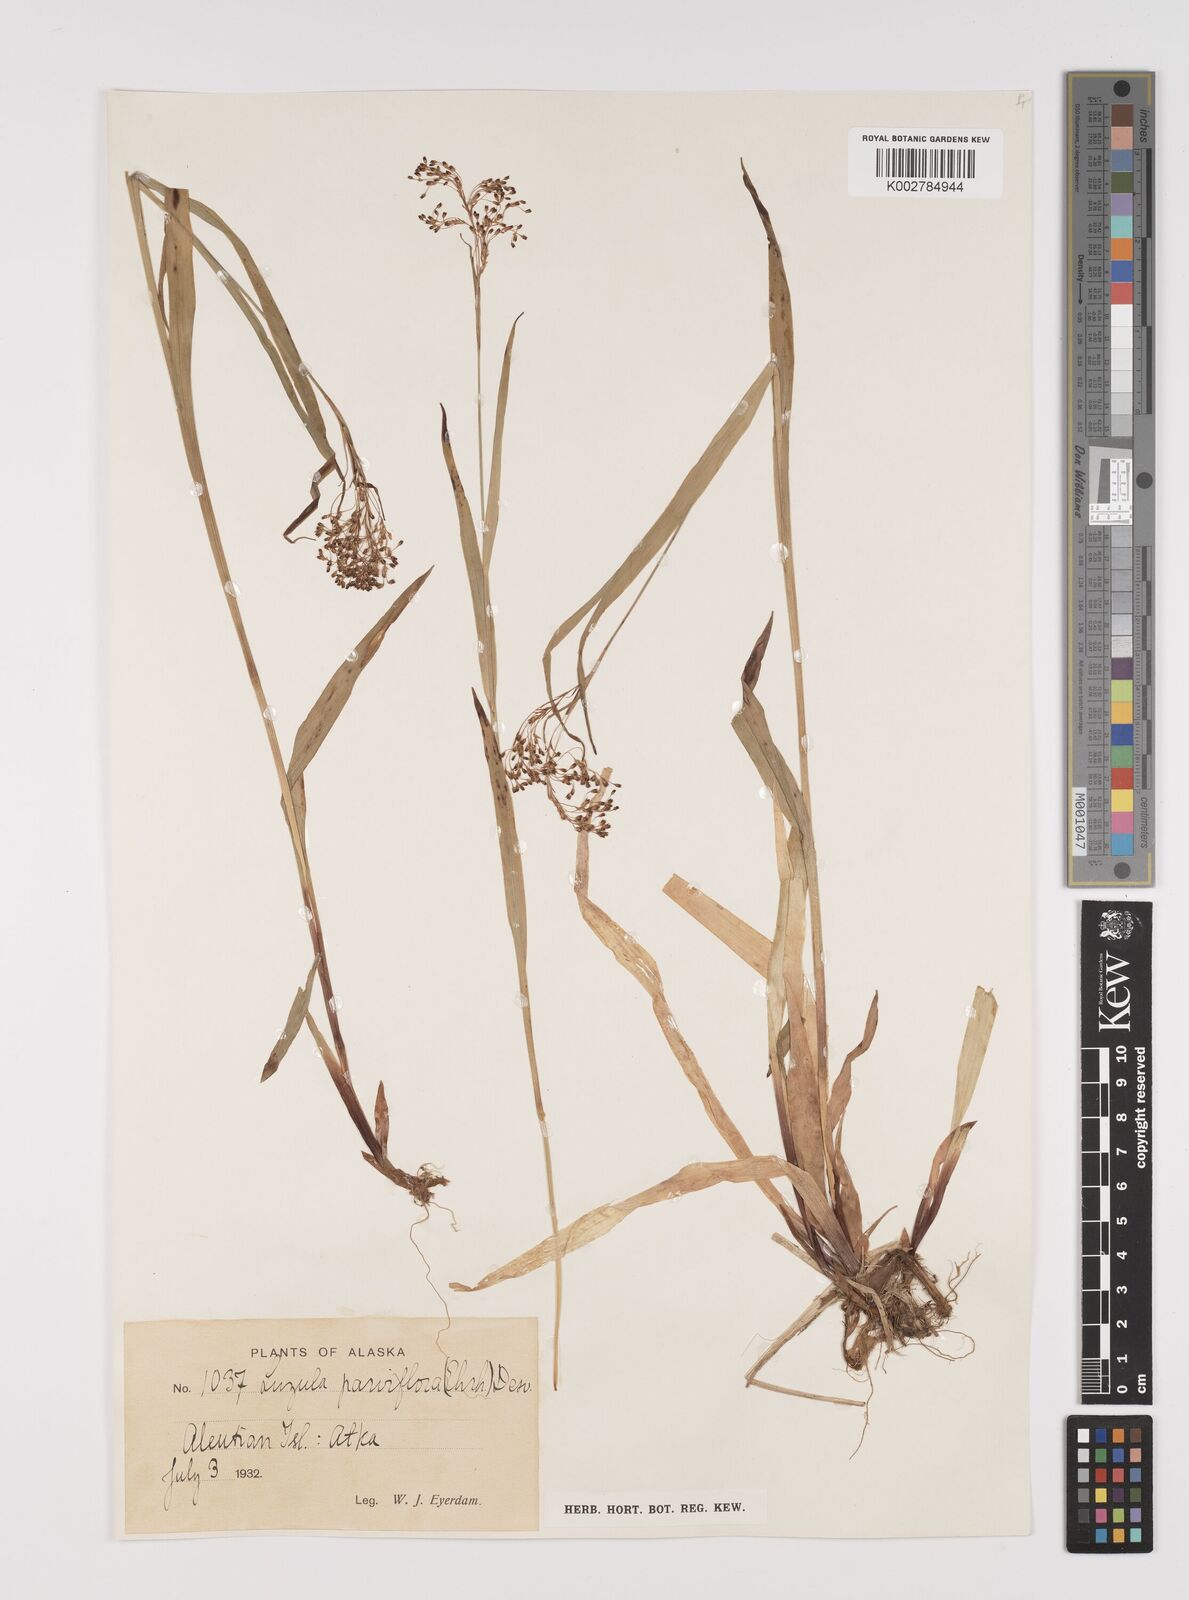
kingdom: Plantae
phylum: Tracheophyta
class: Liliopsida
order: Poales
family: Juncaceae
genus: Luzula
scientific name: Luzula parviflora
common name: Millet woodrush
